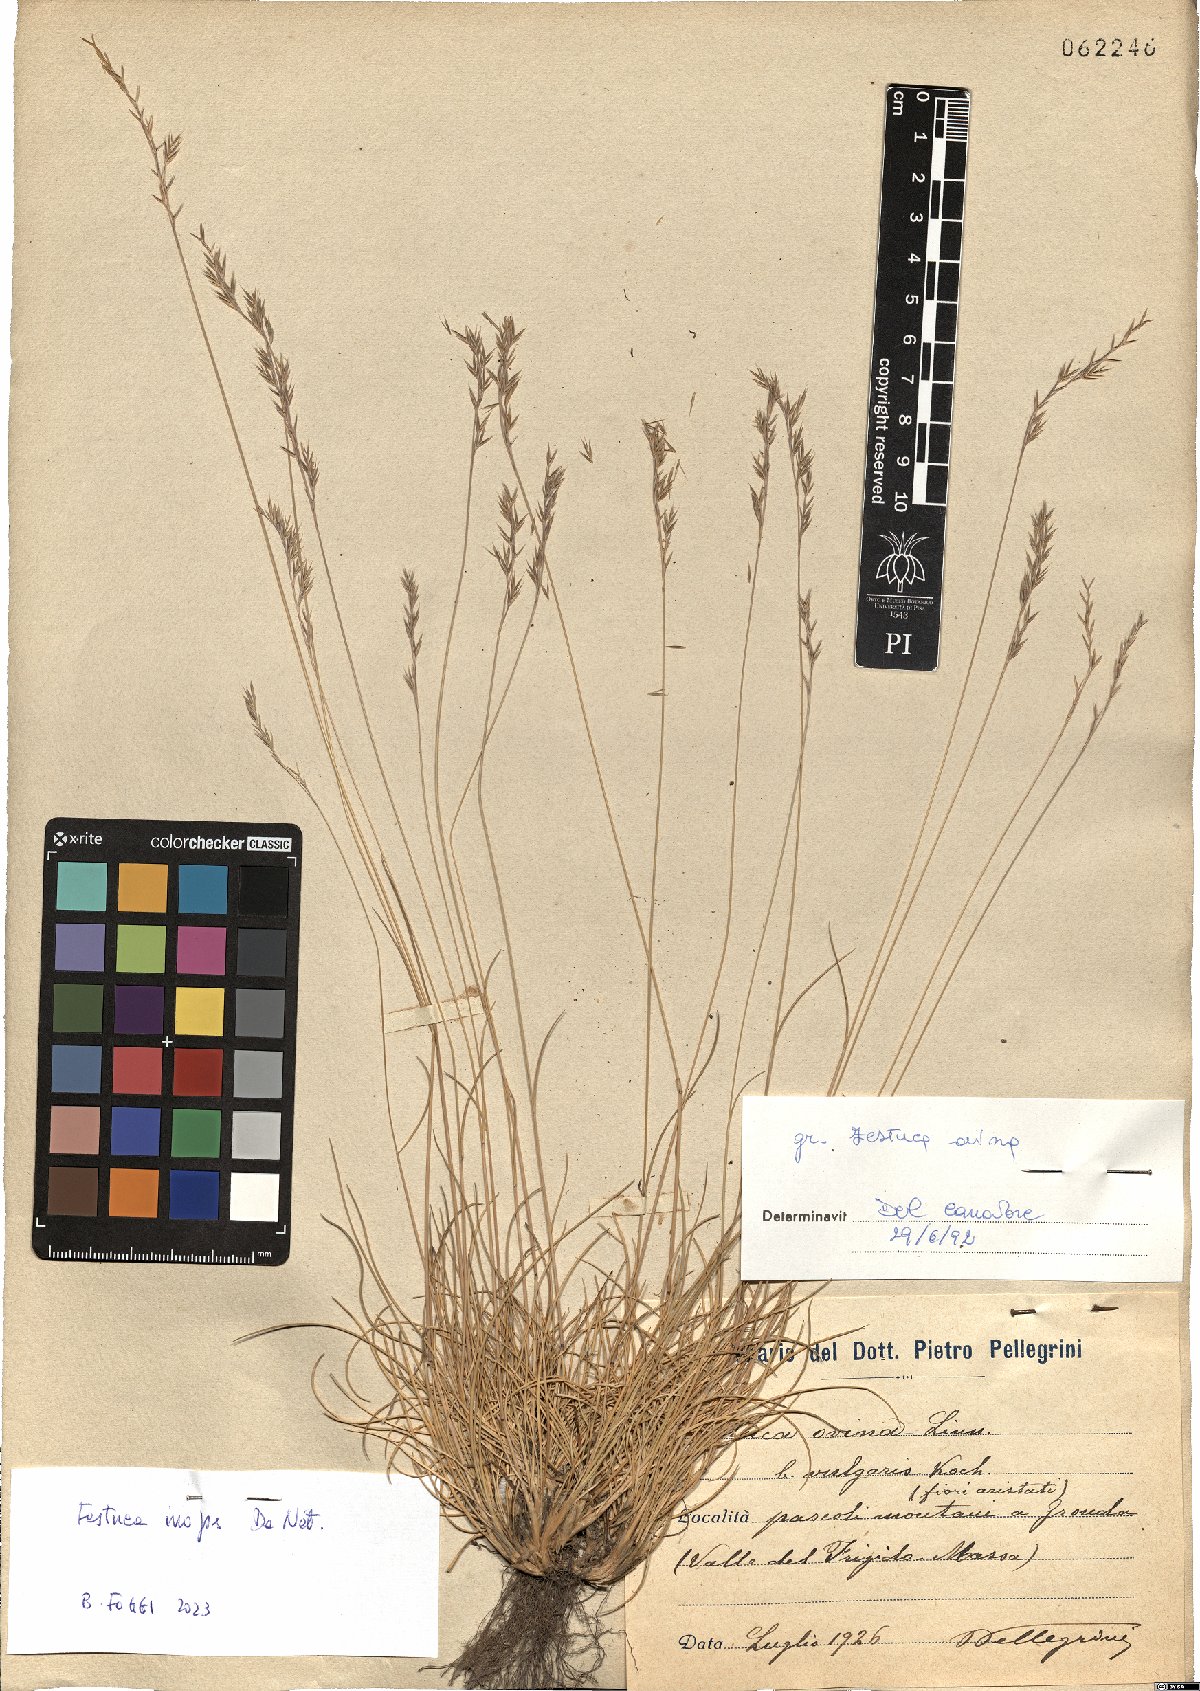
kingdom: Plantae
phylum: Tracheophyta
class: Liliopsida
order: Poales
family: Poaceae
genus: Festuca
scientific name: Festuca inops
